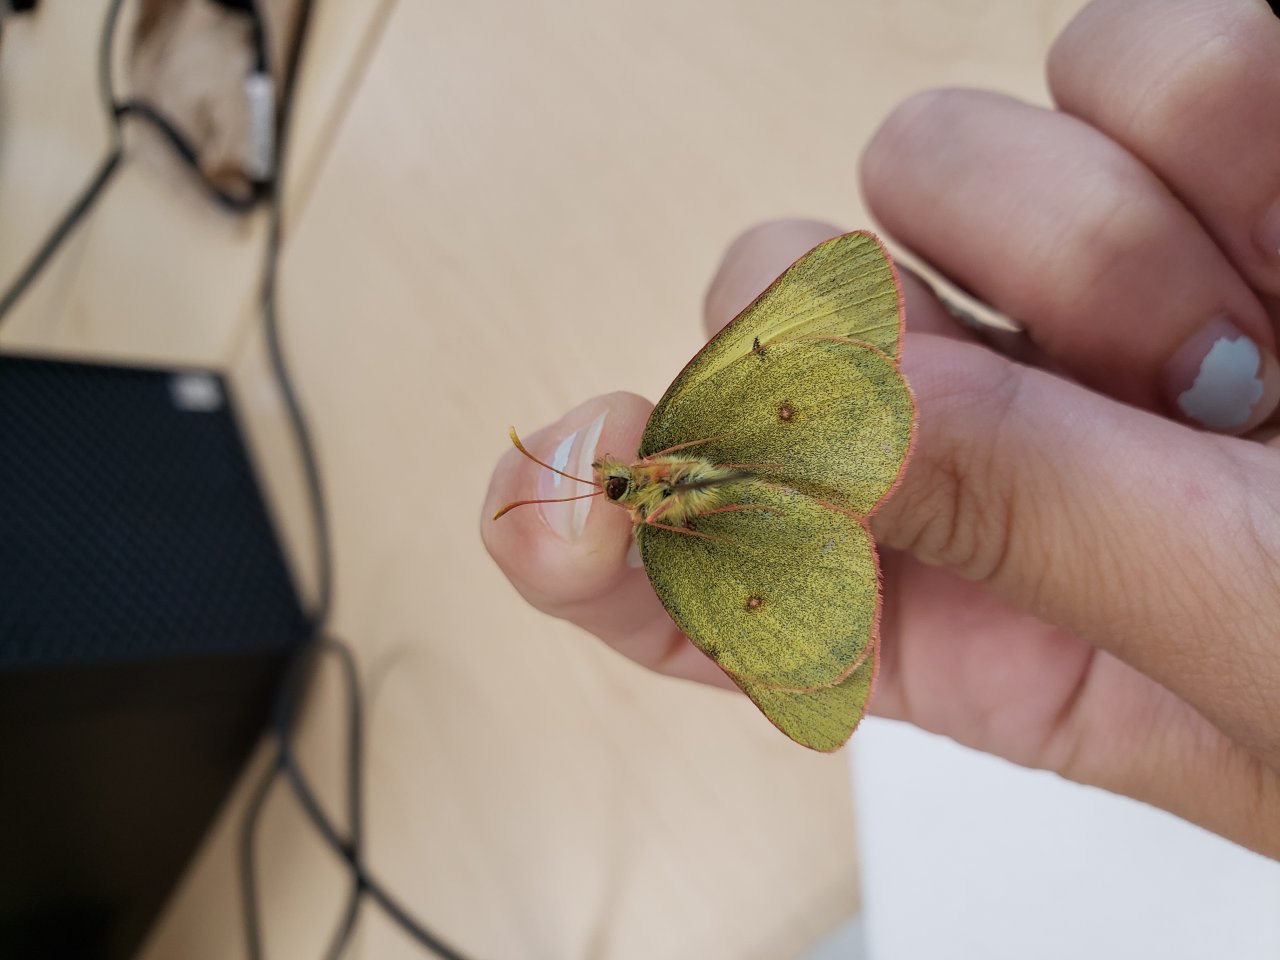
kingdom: Animalia
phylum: Arthropoda
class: Insecta
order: Lepidoptera
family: Pieridae
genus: Colias
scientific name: Colias pelidne
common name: Pelidne Sulphur
